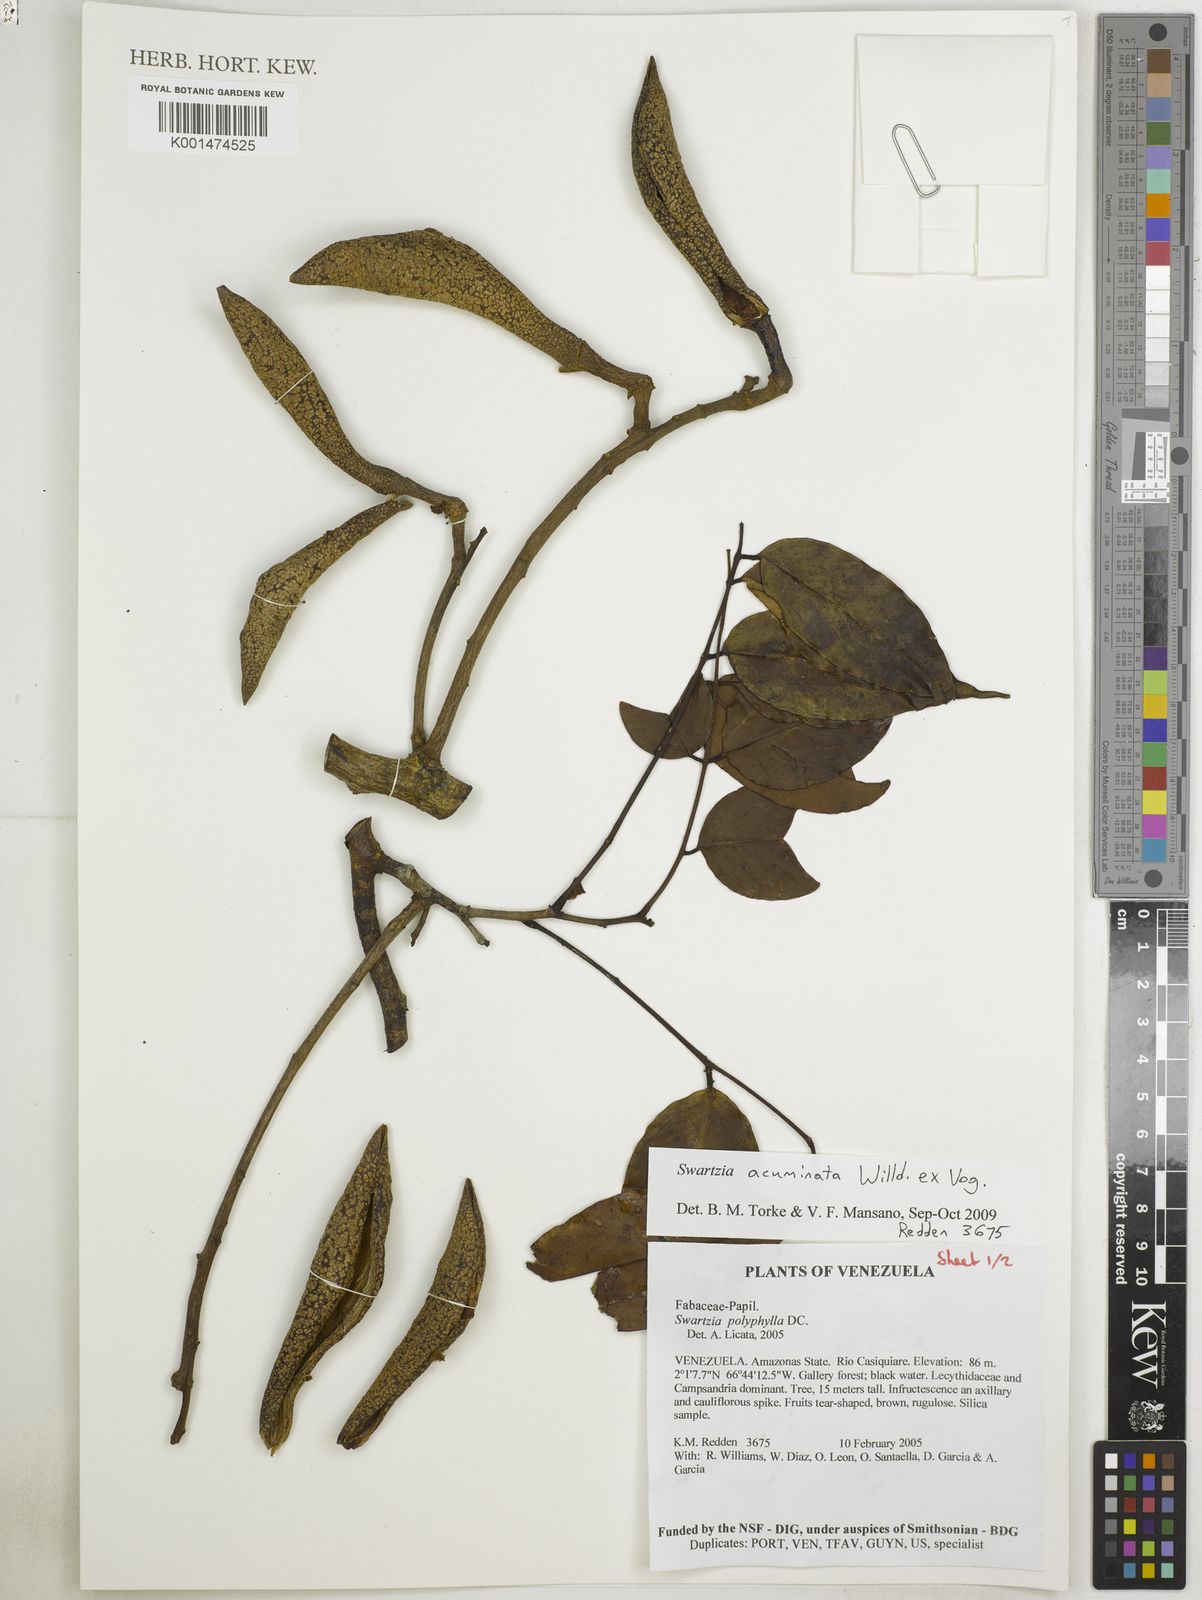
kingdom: Plantae
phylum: Tracheophyta
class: Magnoliopsida
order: Fabales
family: Fabaceae
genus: Swartzia
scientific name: Swartzia acuminata
